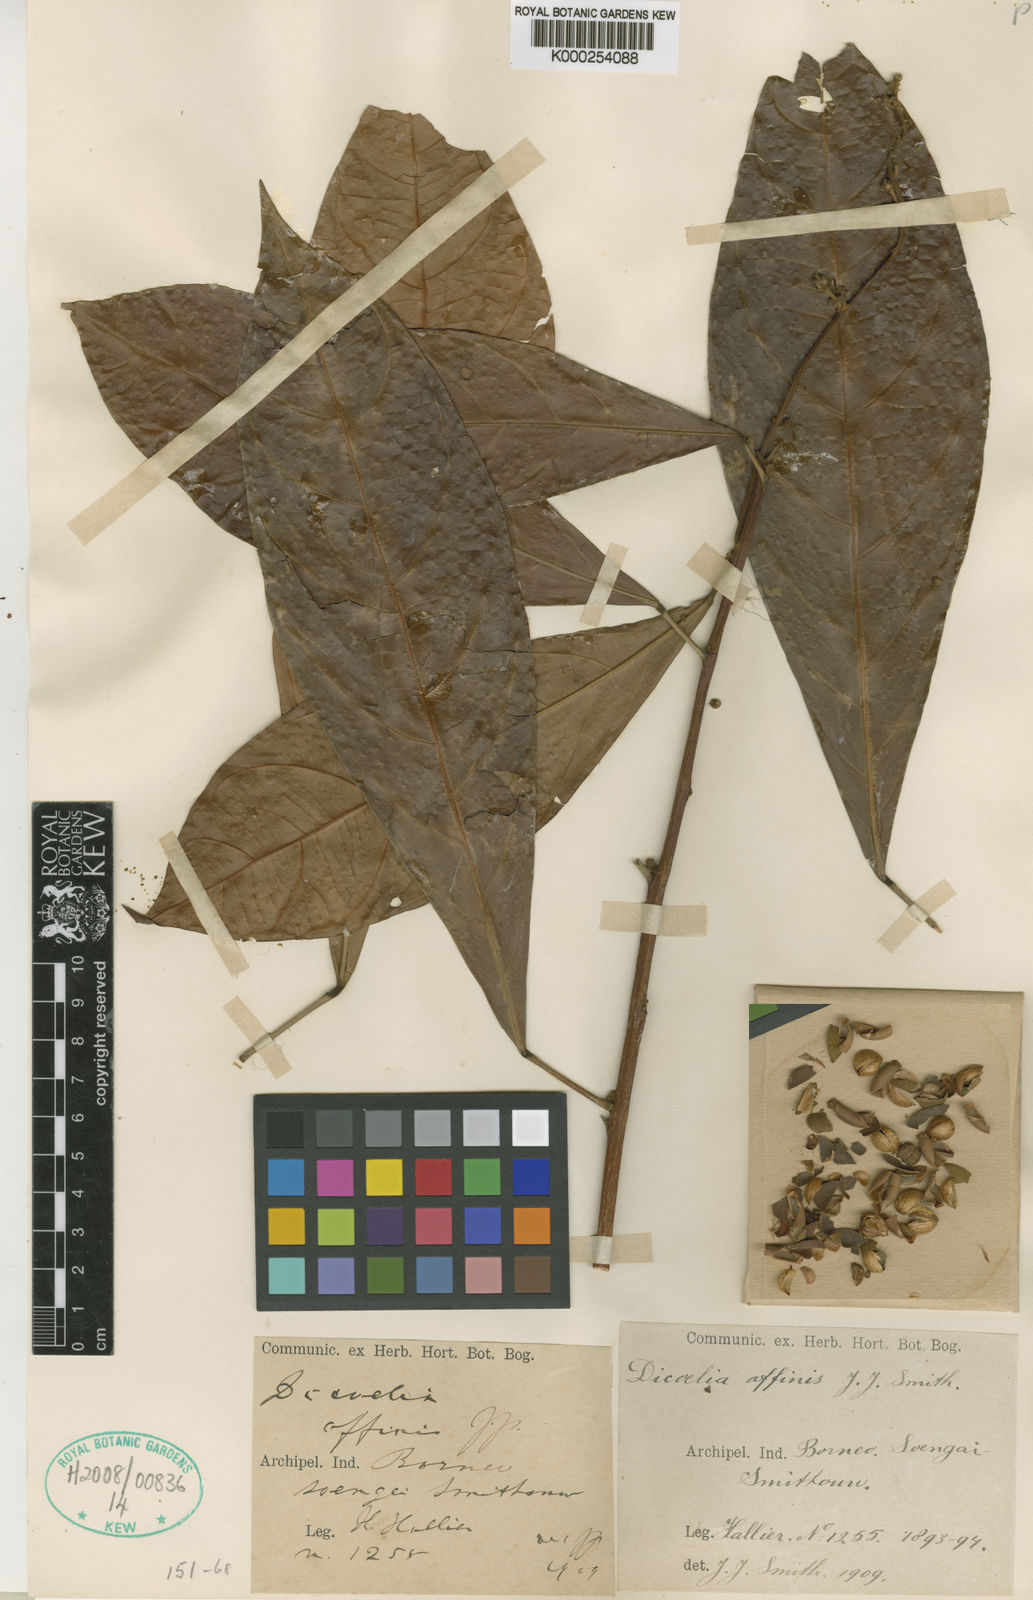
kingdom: Plantae
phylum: Tracheophyta
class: Magnoliopsida
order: Malpighiales
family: Phyllanthaceae
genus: Dicoelia
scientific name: Dicoelia beccariana
